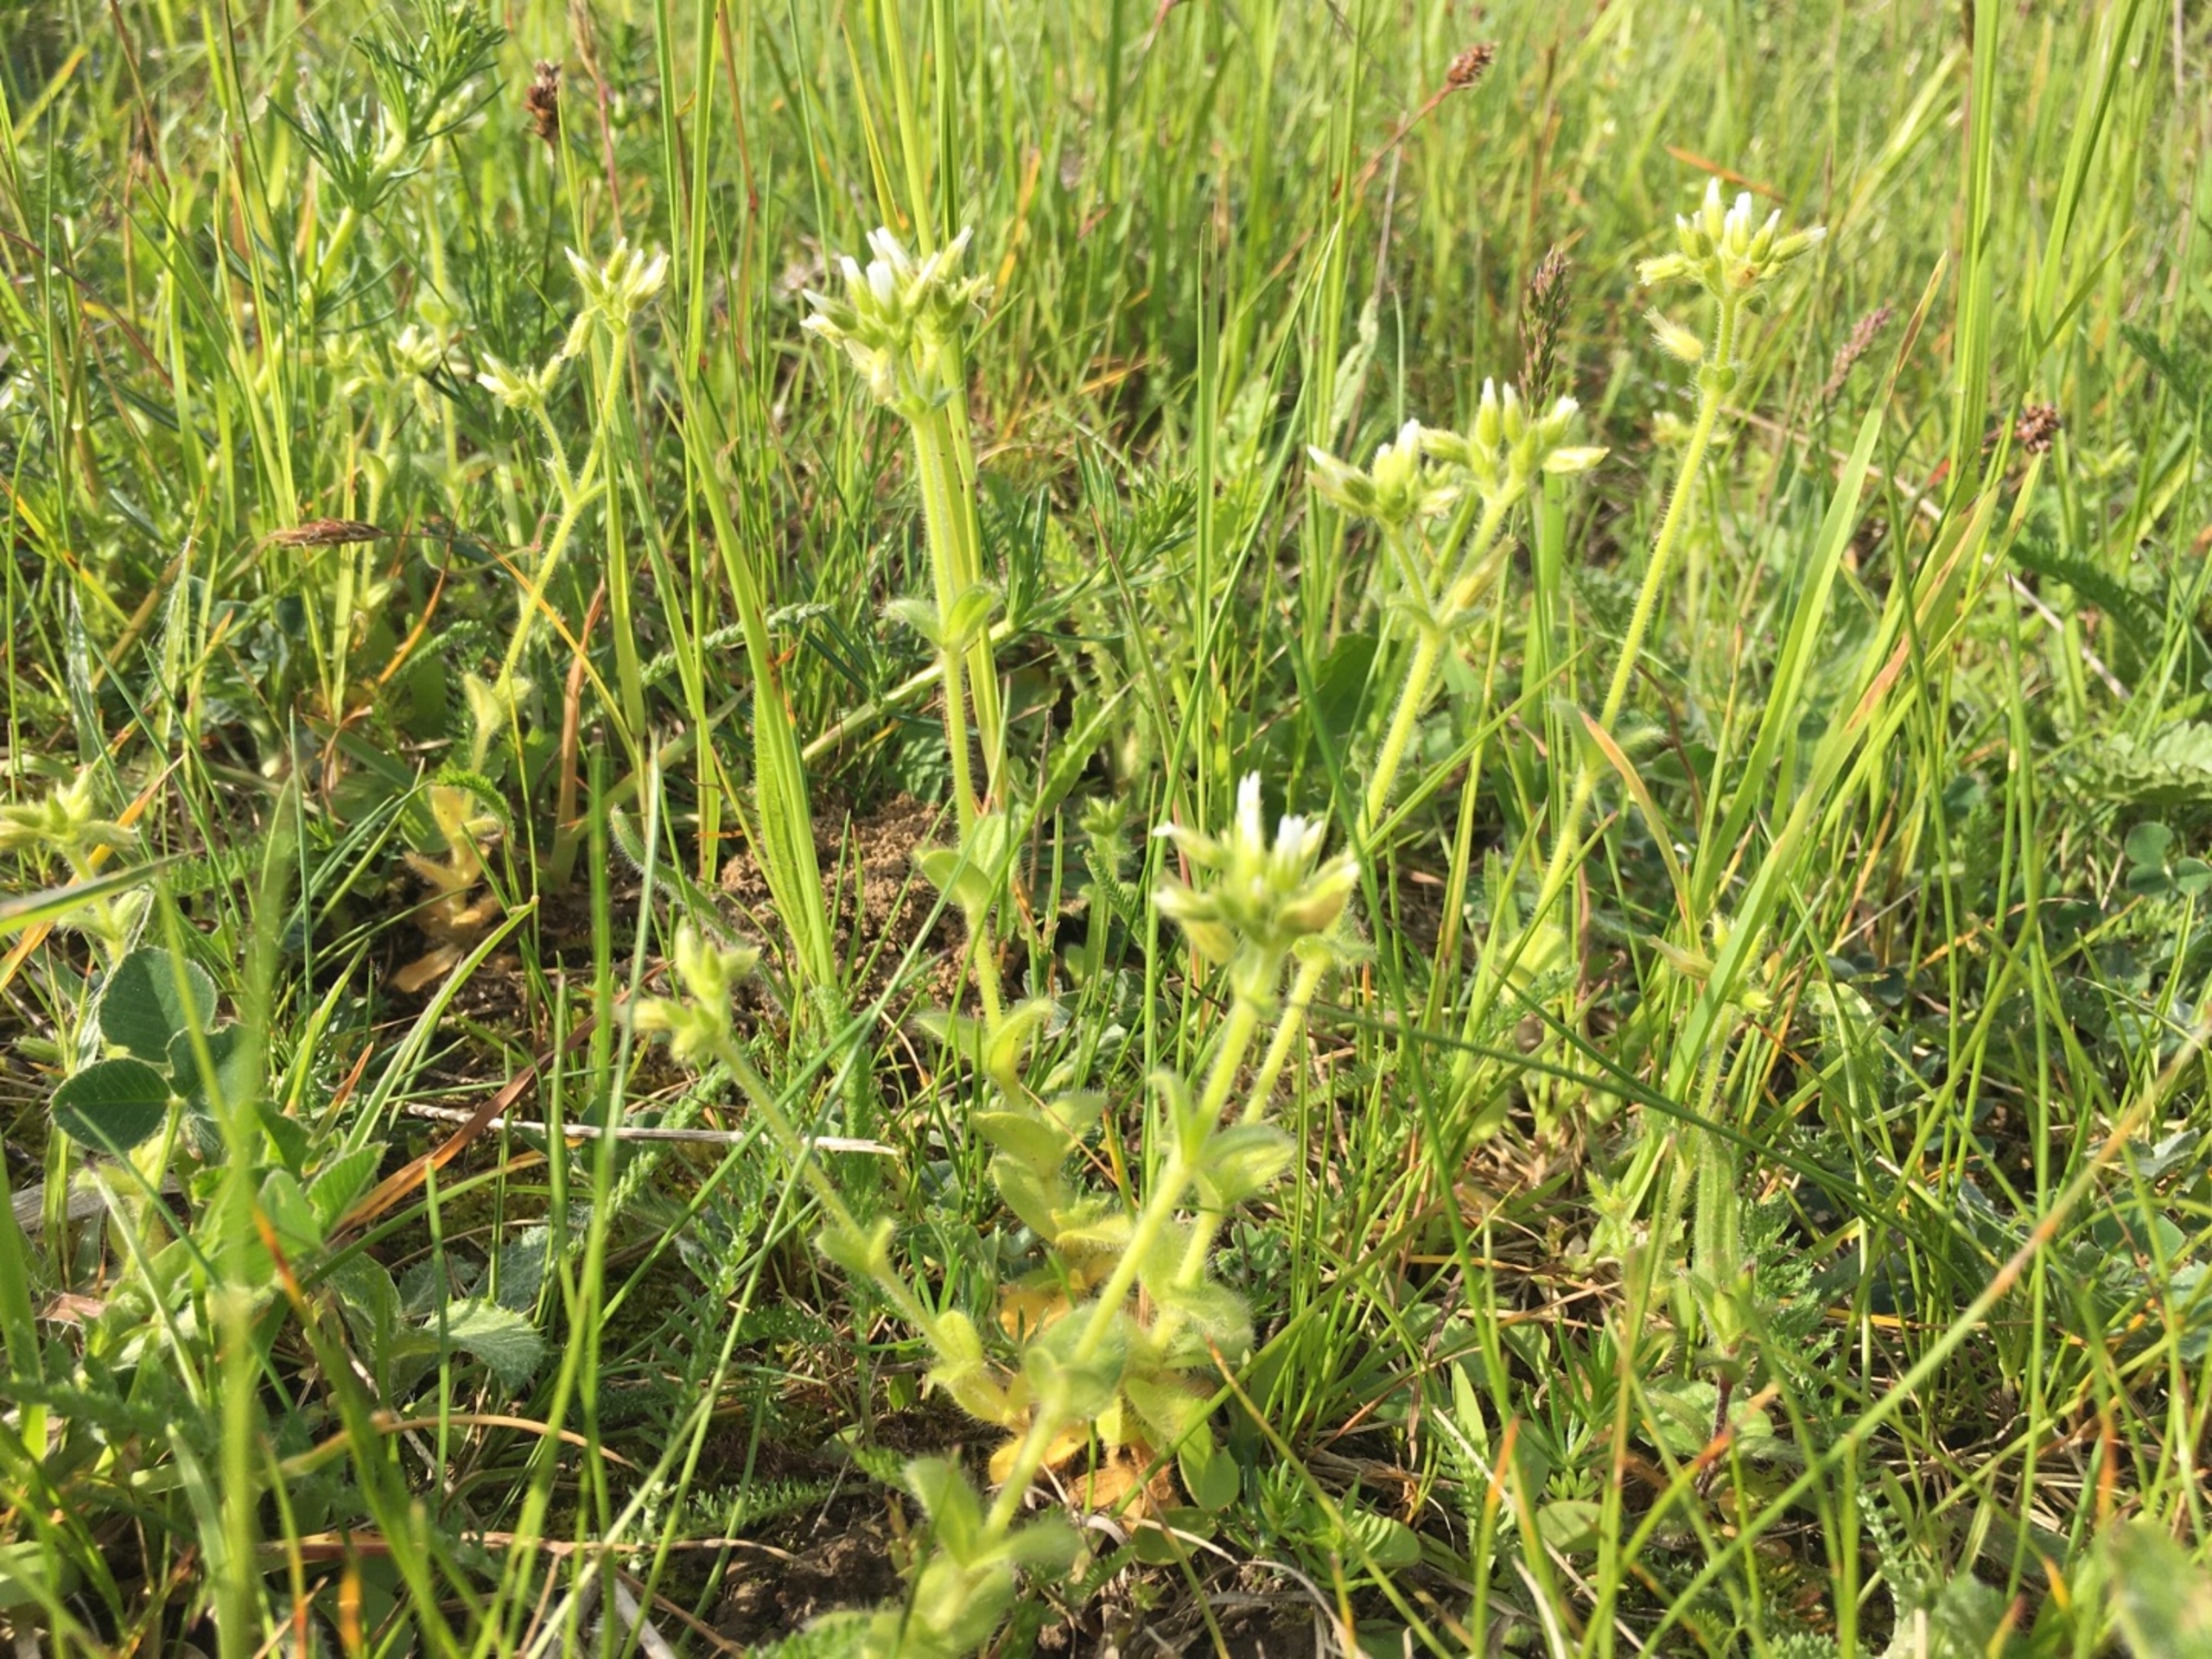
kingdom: Plantae
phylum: Tracheophyta
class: Magnoliopsida
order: Caryophyllales
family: Caryophyllaceae
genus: Cerastium
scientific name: Cerastium glomeratum
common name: Opret hønsetarm
